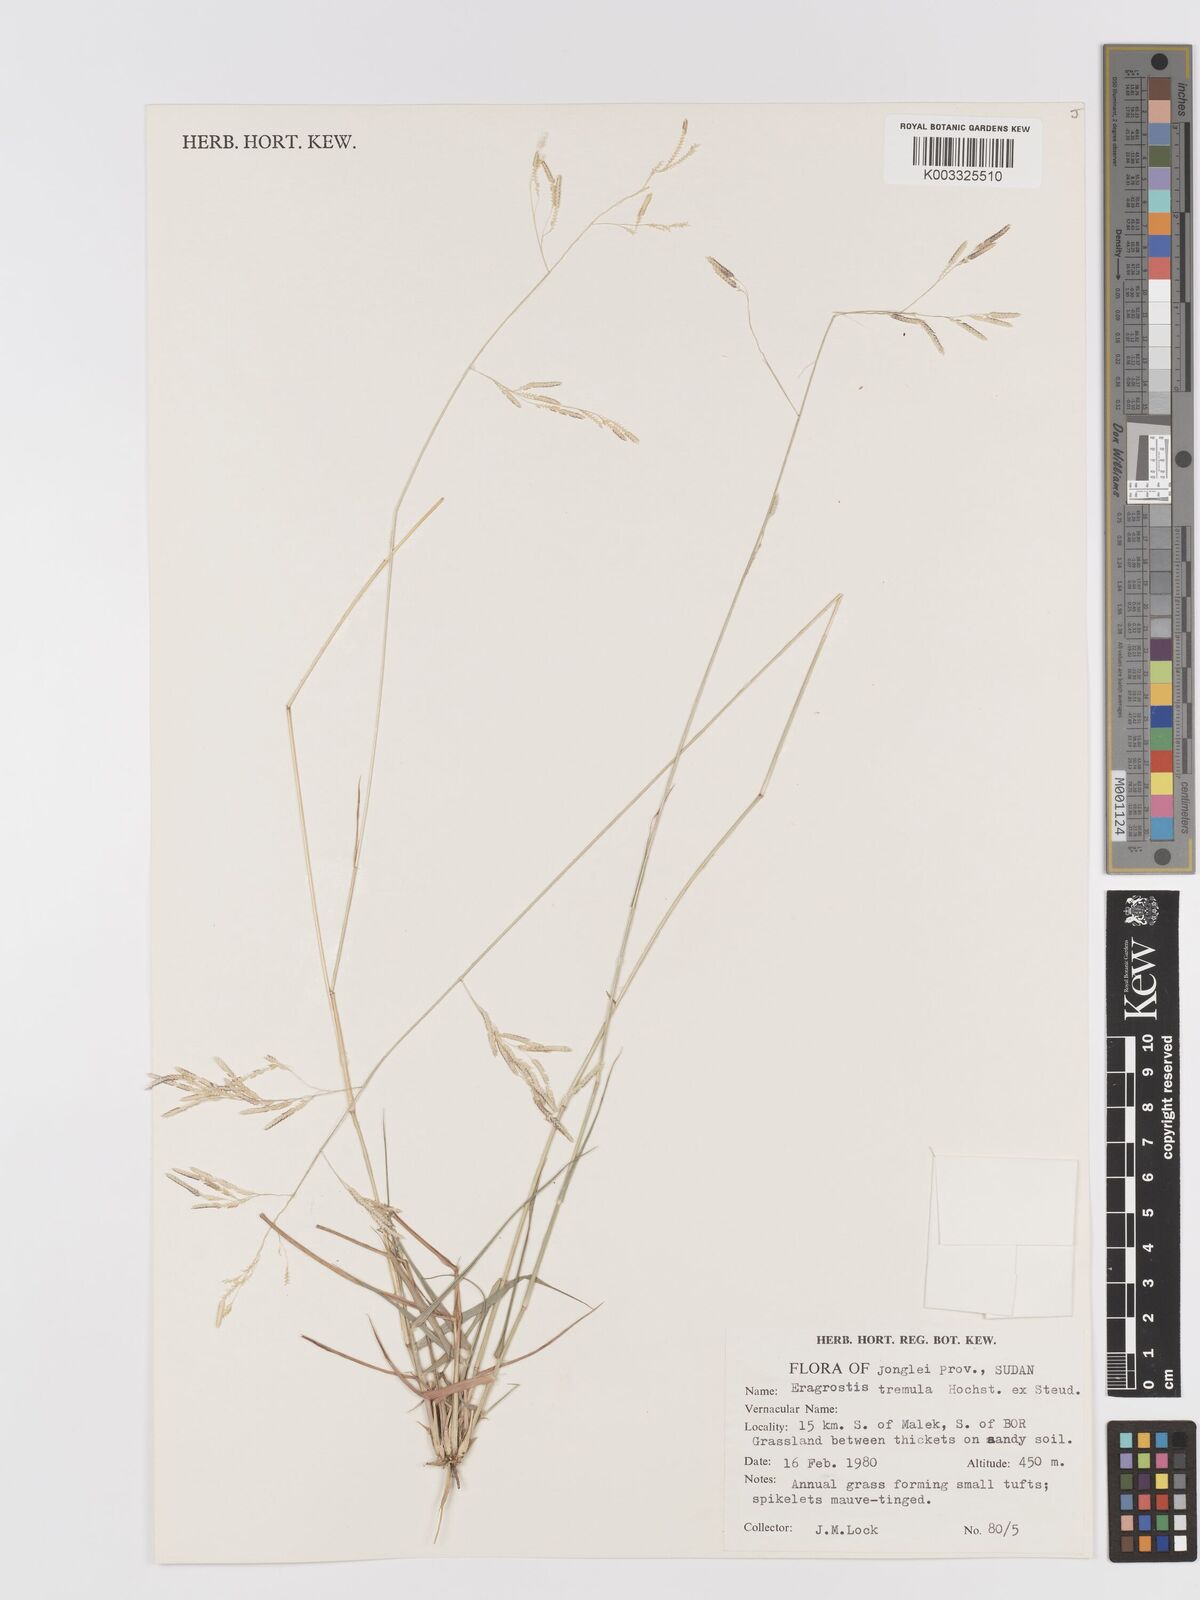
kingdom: Plantae
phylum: Tracheophyta
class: Liliopsida
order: Poales
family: Poaceae
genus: Eragrostis
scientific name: Eragrostis tremula
